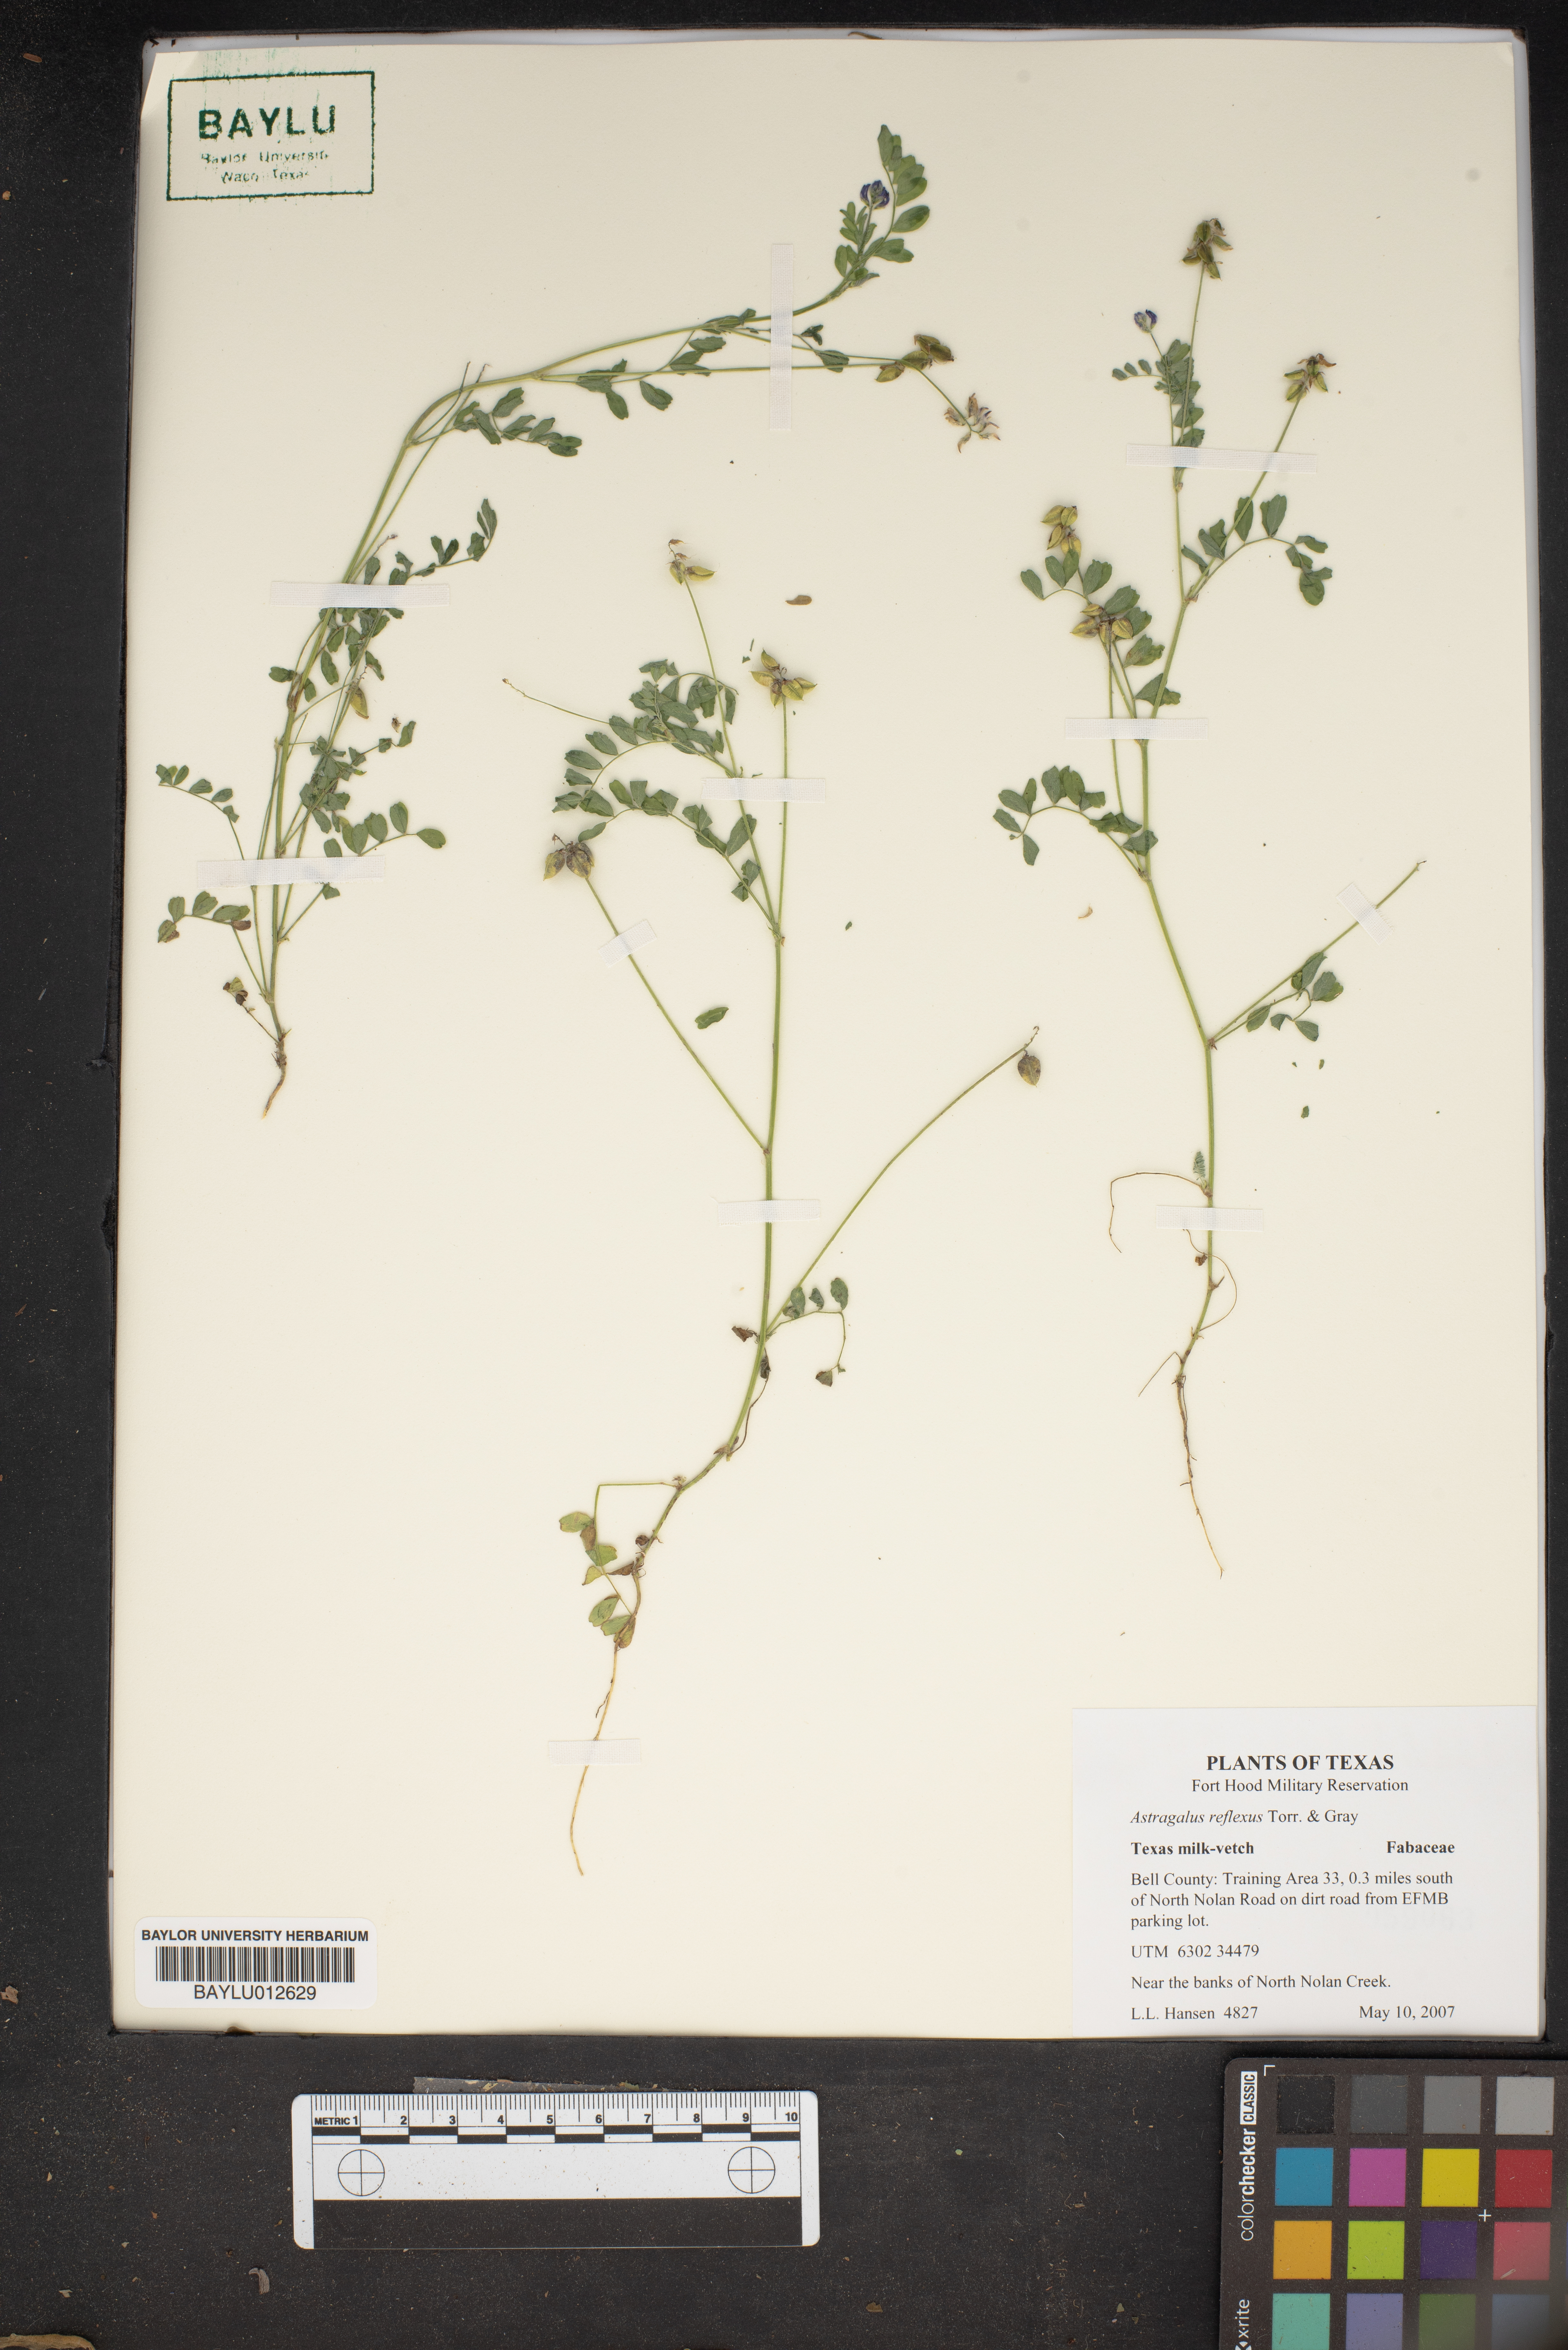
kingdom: Plantae
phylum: Tracheophyta
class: Magnoliopsida
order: Fabales
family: Fabaceae
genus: Astragalus
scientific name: Astragalus reflexus
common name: Texas milk-vetch
